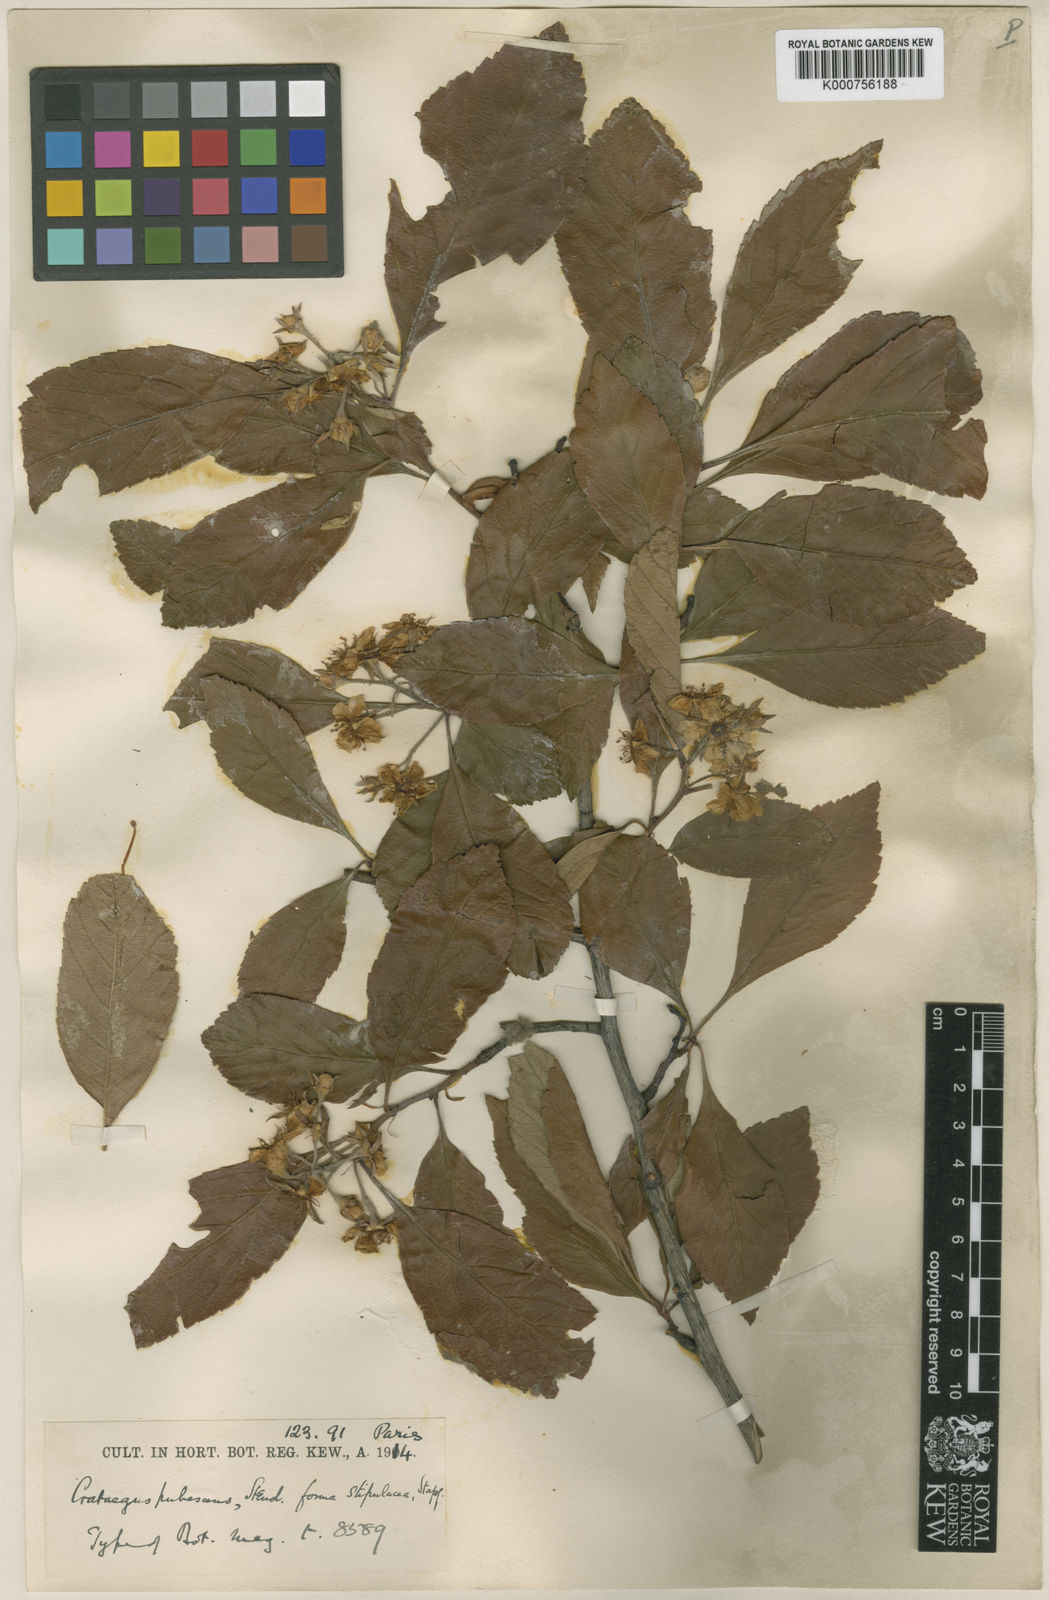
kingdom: Plantae
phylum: Tracheophyta
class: Magnoliopsida
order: Rosales
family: Rosaceae
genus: Crataegus
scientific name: Crataegus gracilior
